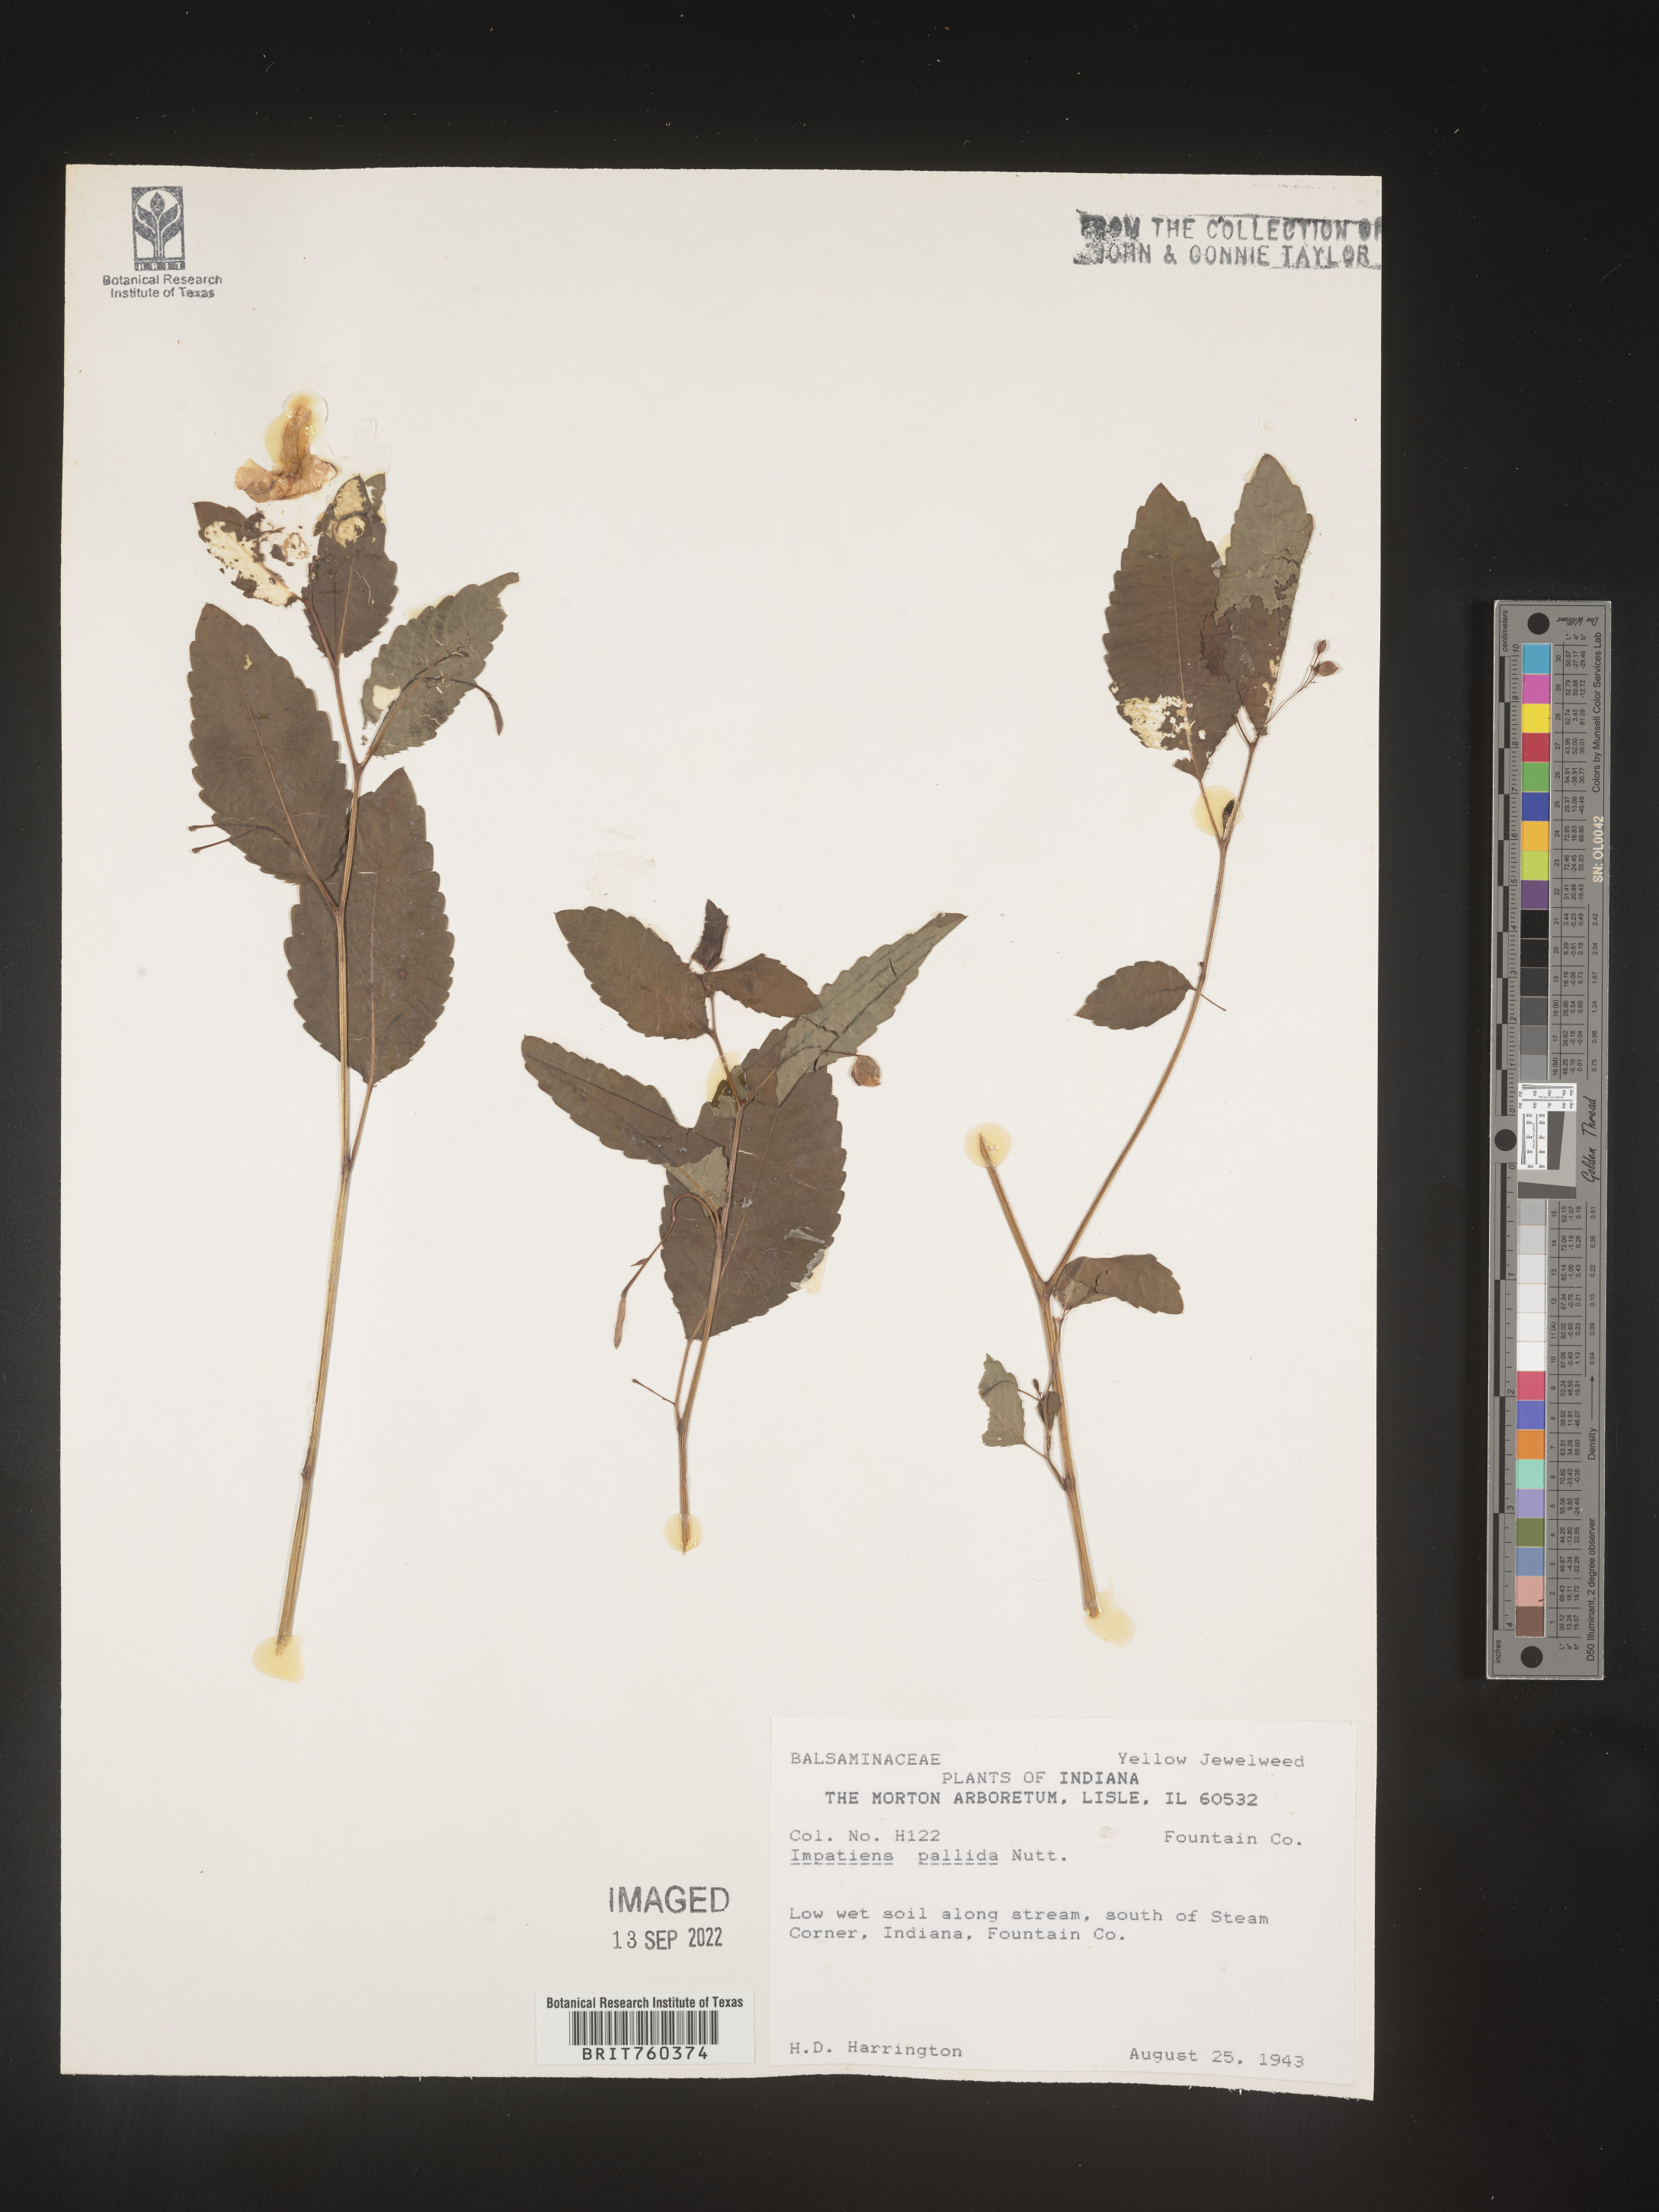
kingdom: Plantae
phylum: Tracheophyta
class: Magnoliopsida
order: Ericales
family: Balsaminaceae
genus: Impatiens
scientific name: Impatiens pallida
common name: Pale snapweed
